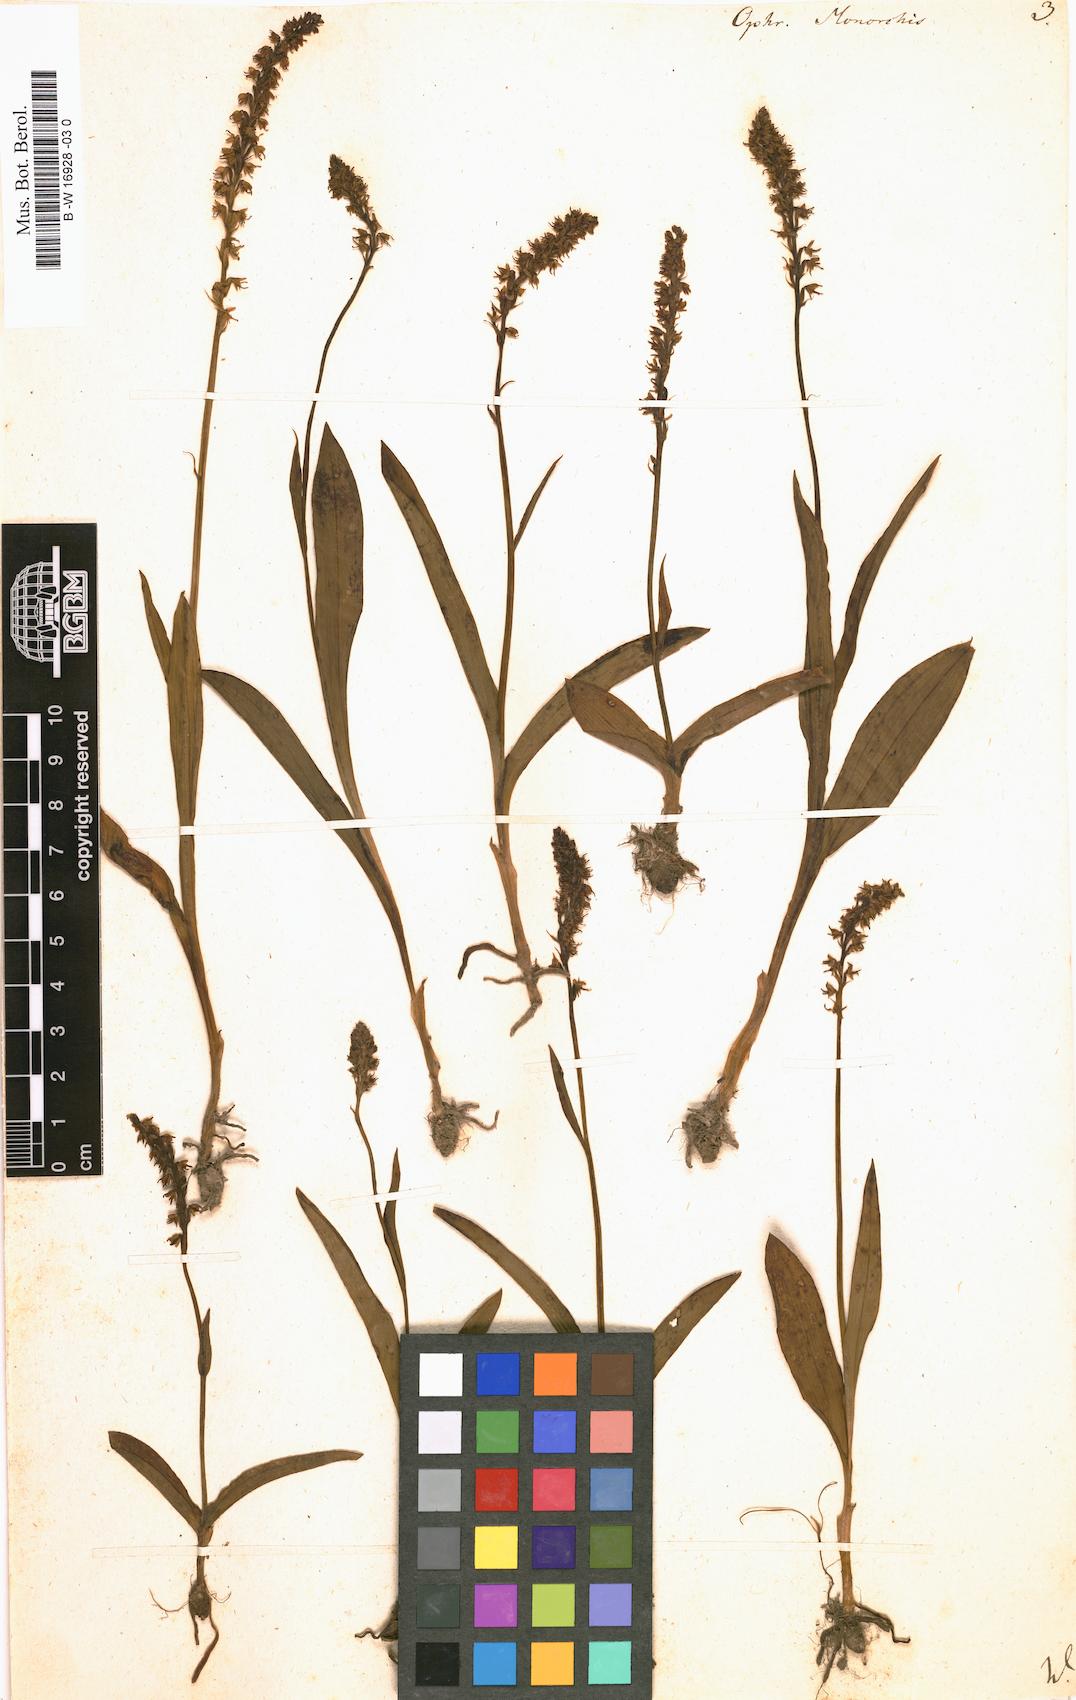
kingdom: Plantae
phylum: Tracheophyta
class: Liliopsida
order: Asparagales
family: Orchidaceae
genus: Herminium
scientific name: Herminium monorchis
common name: Musk orchid
